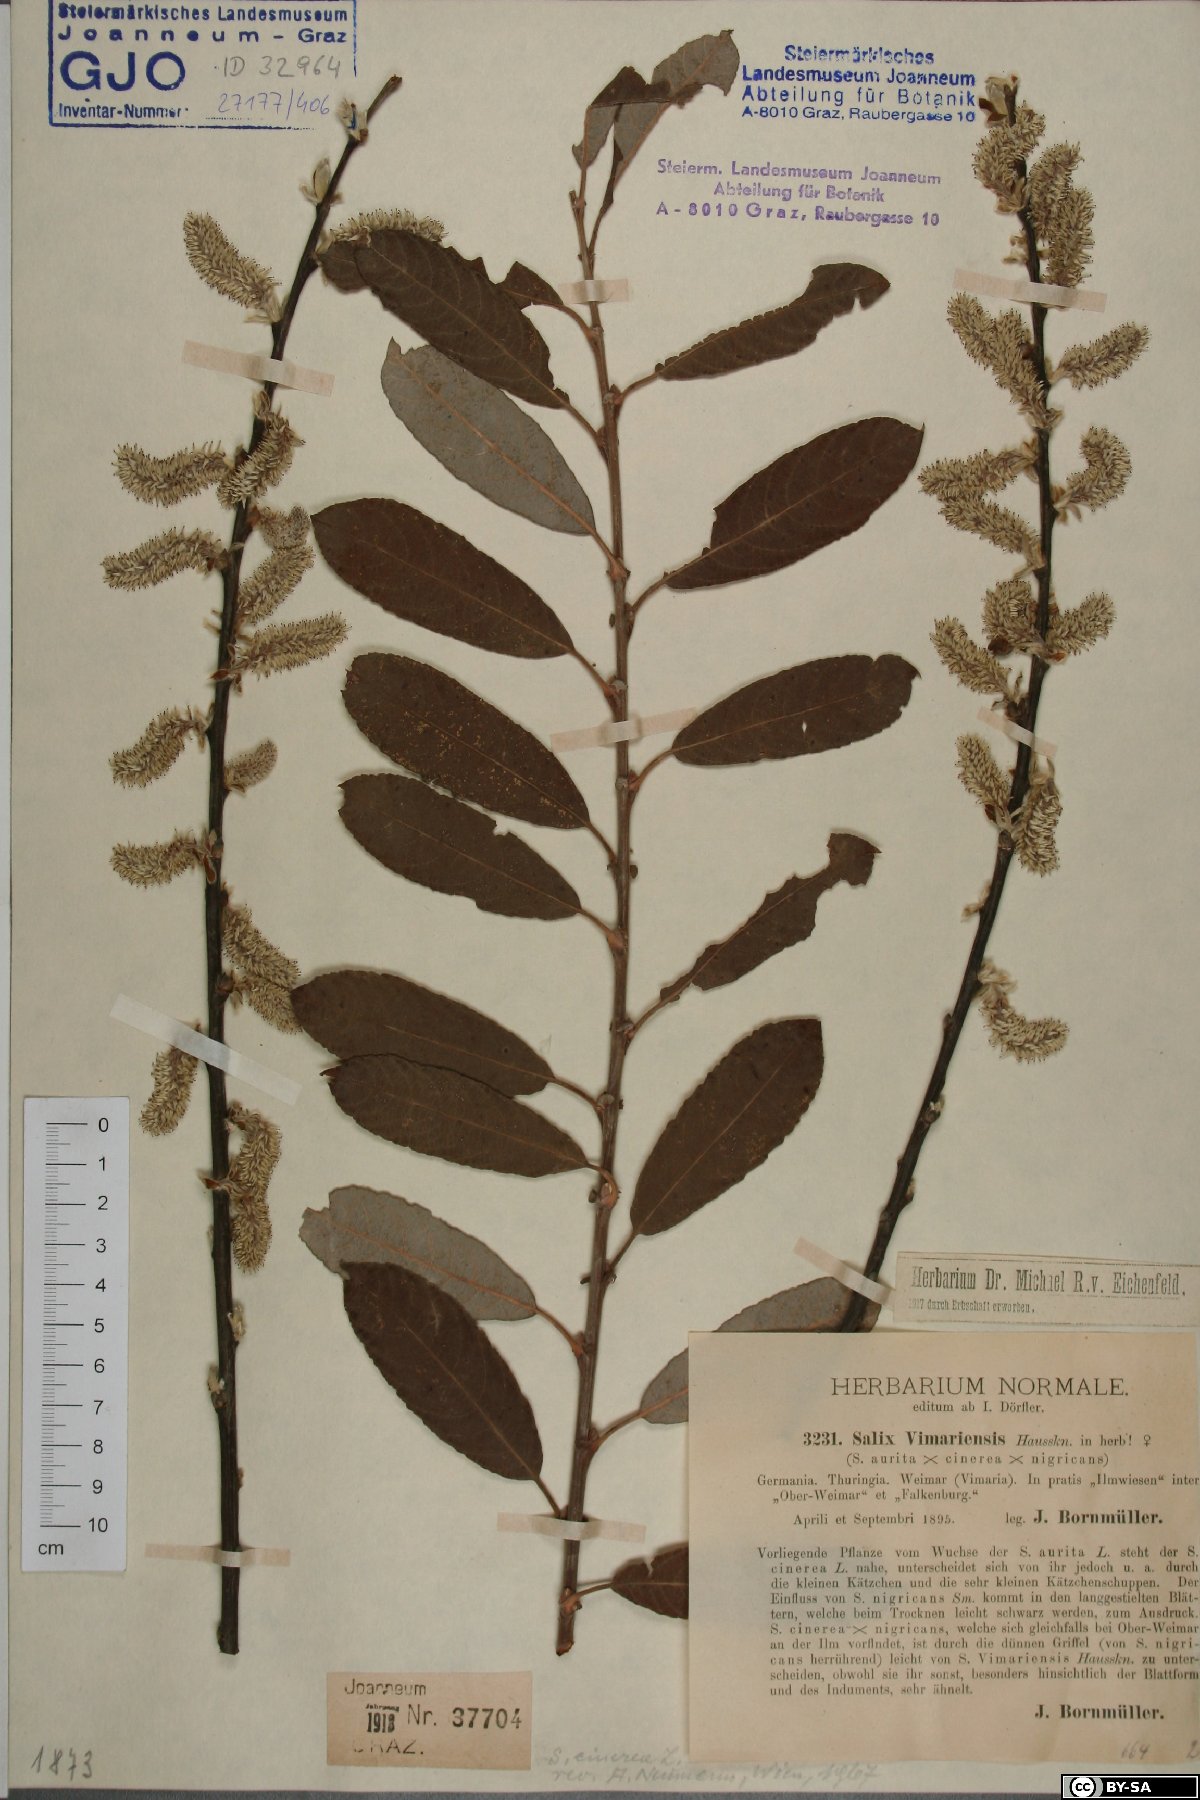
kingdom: Plantae
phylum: Tracheophyta
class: Magnoliopsida
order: Malpighiales
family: Salicaceae
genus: Salix
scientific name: Salix cinerea
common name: Common sallow
